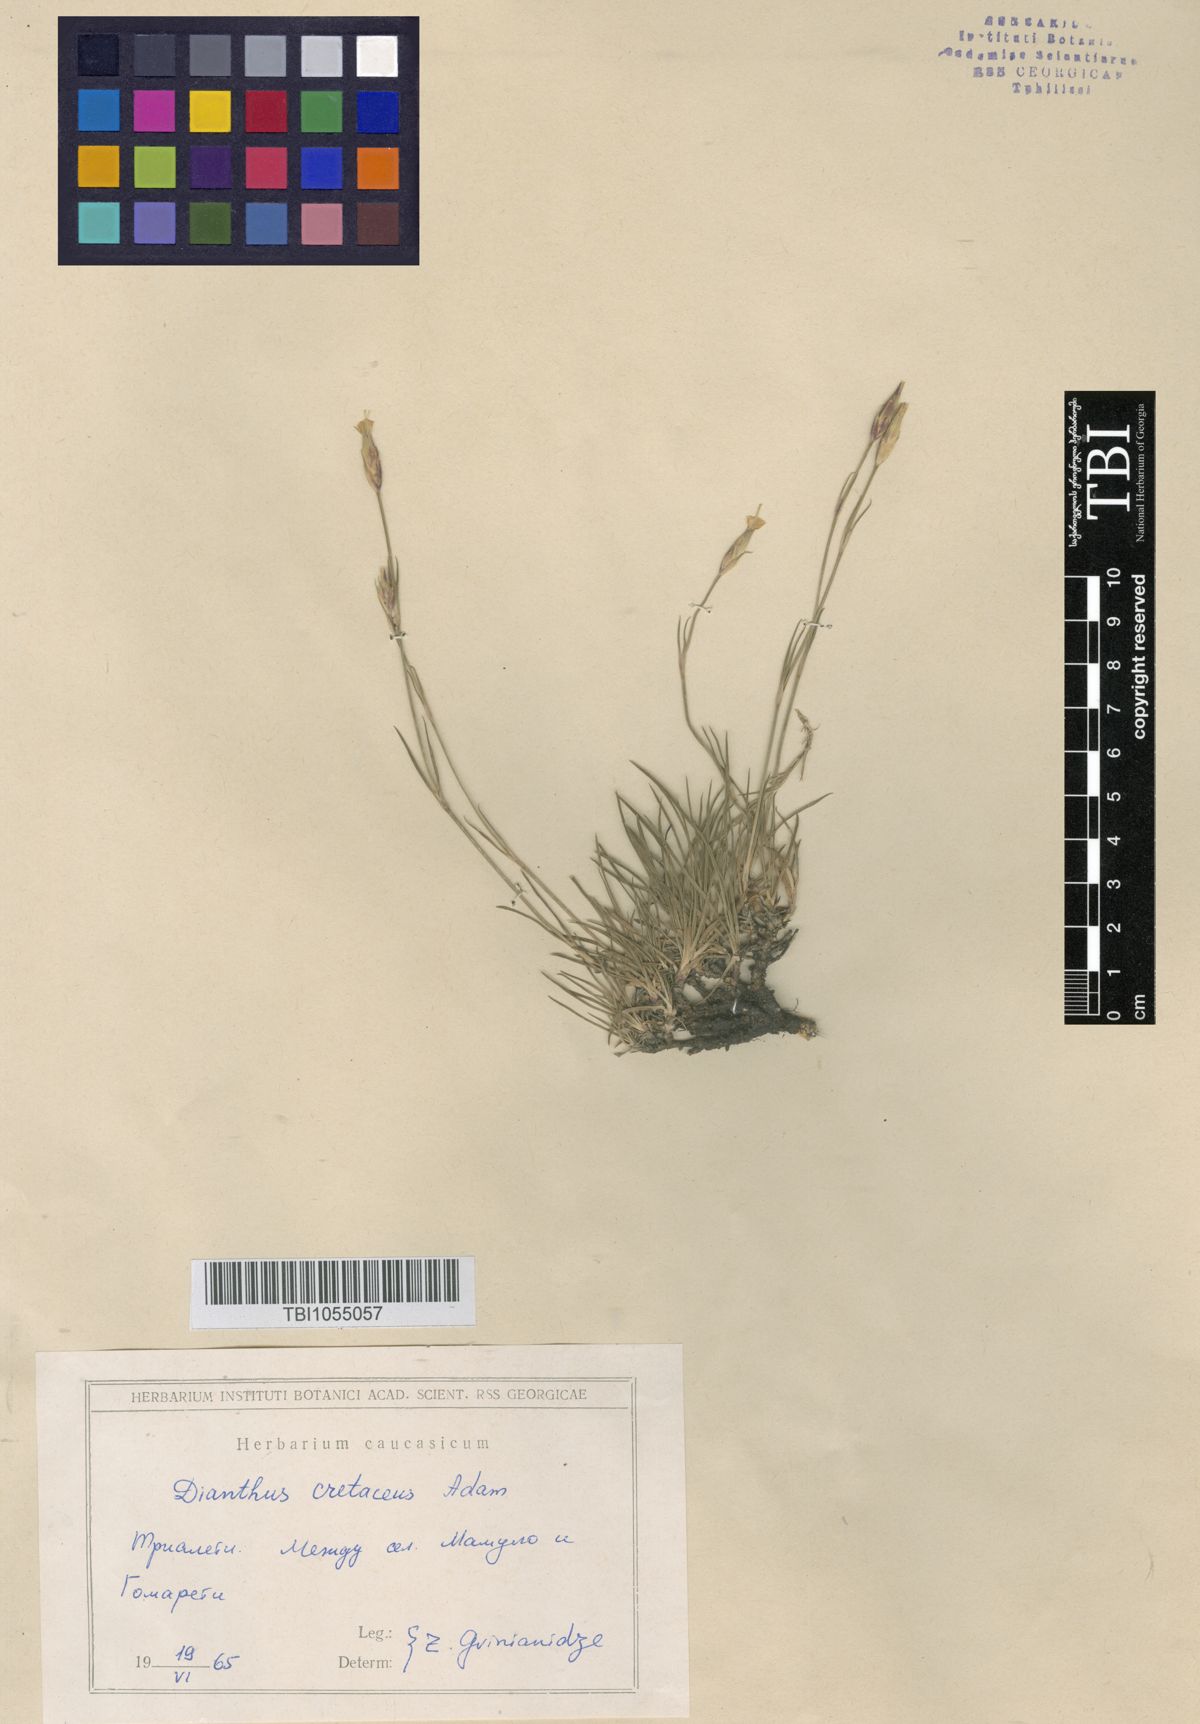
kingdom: Plantae
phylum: Tracheophyta
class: Magnoliopsida
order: Caryophyllales
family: Caryophyllaceae
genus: Dianthus
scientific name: Dianthus cretaceus
